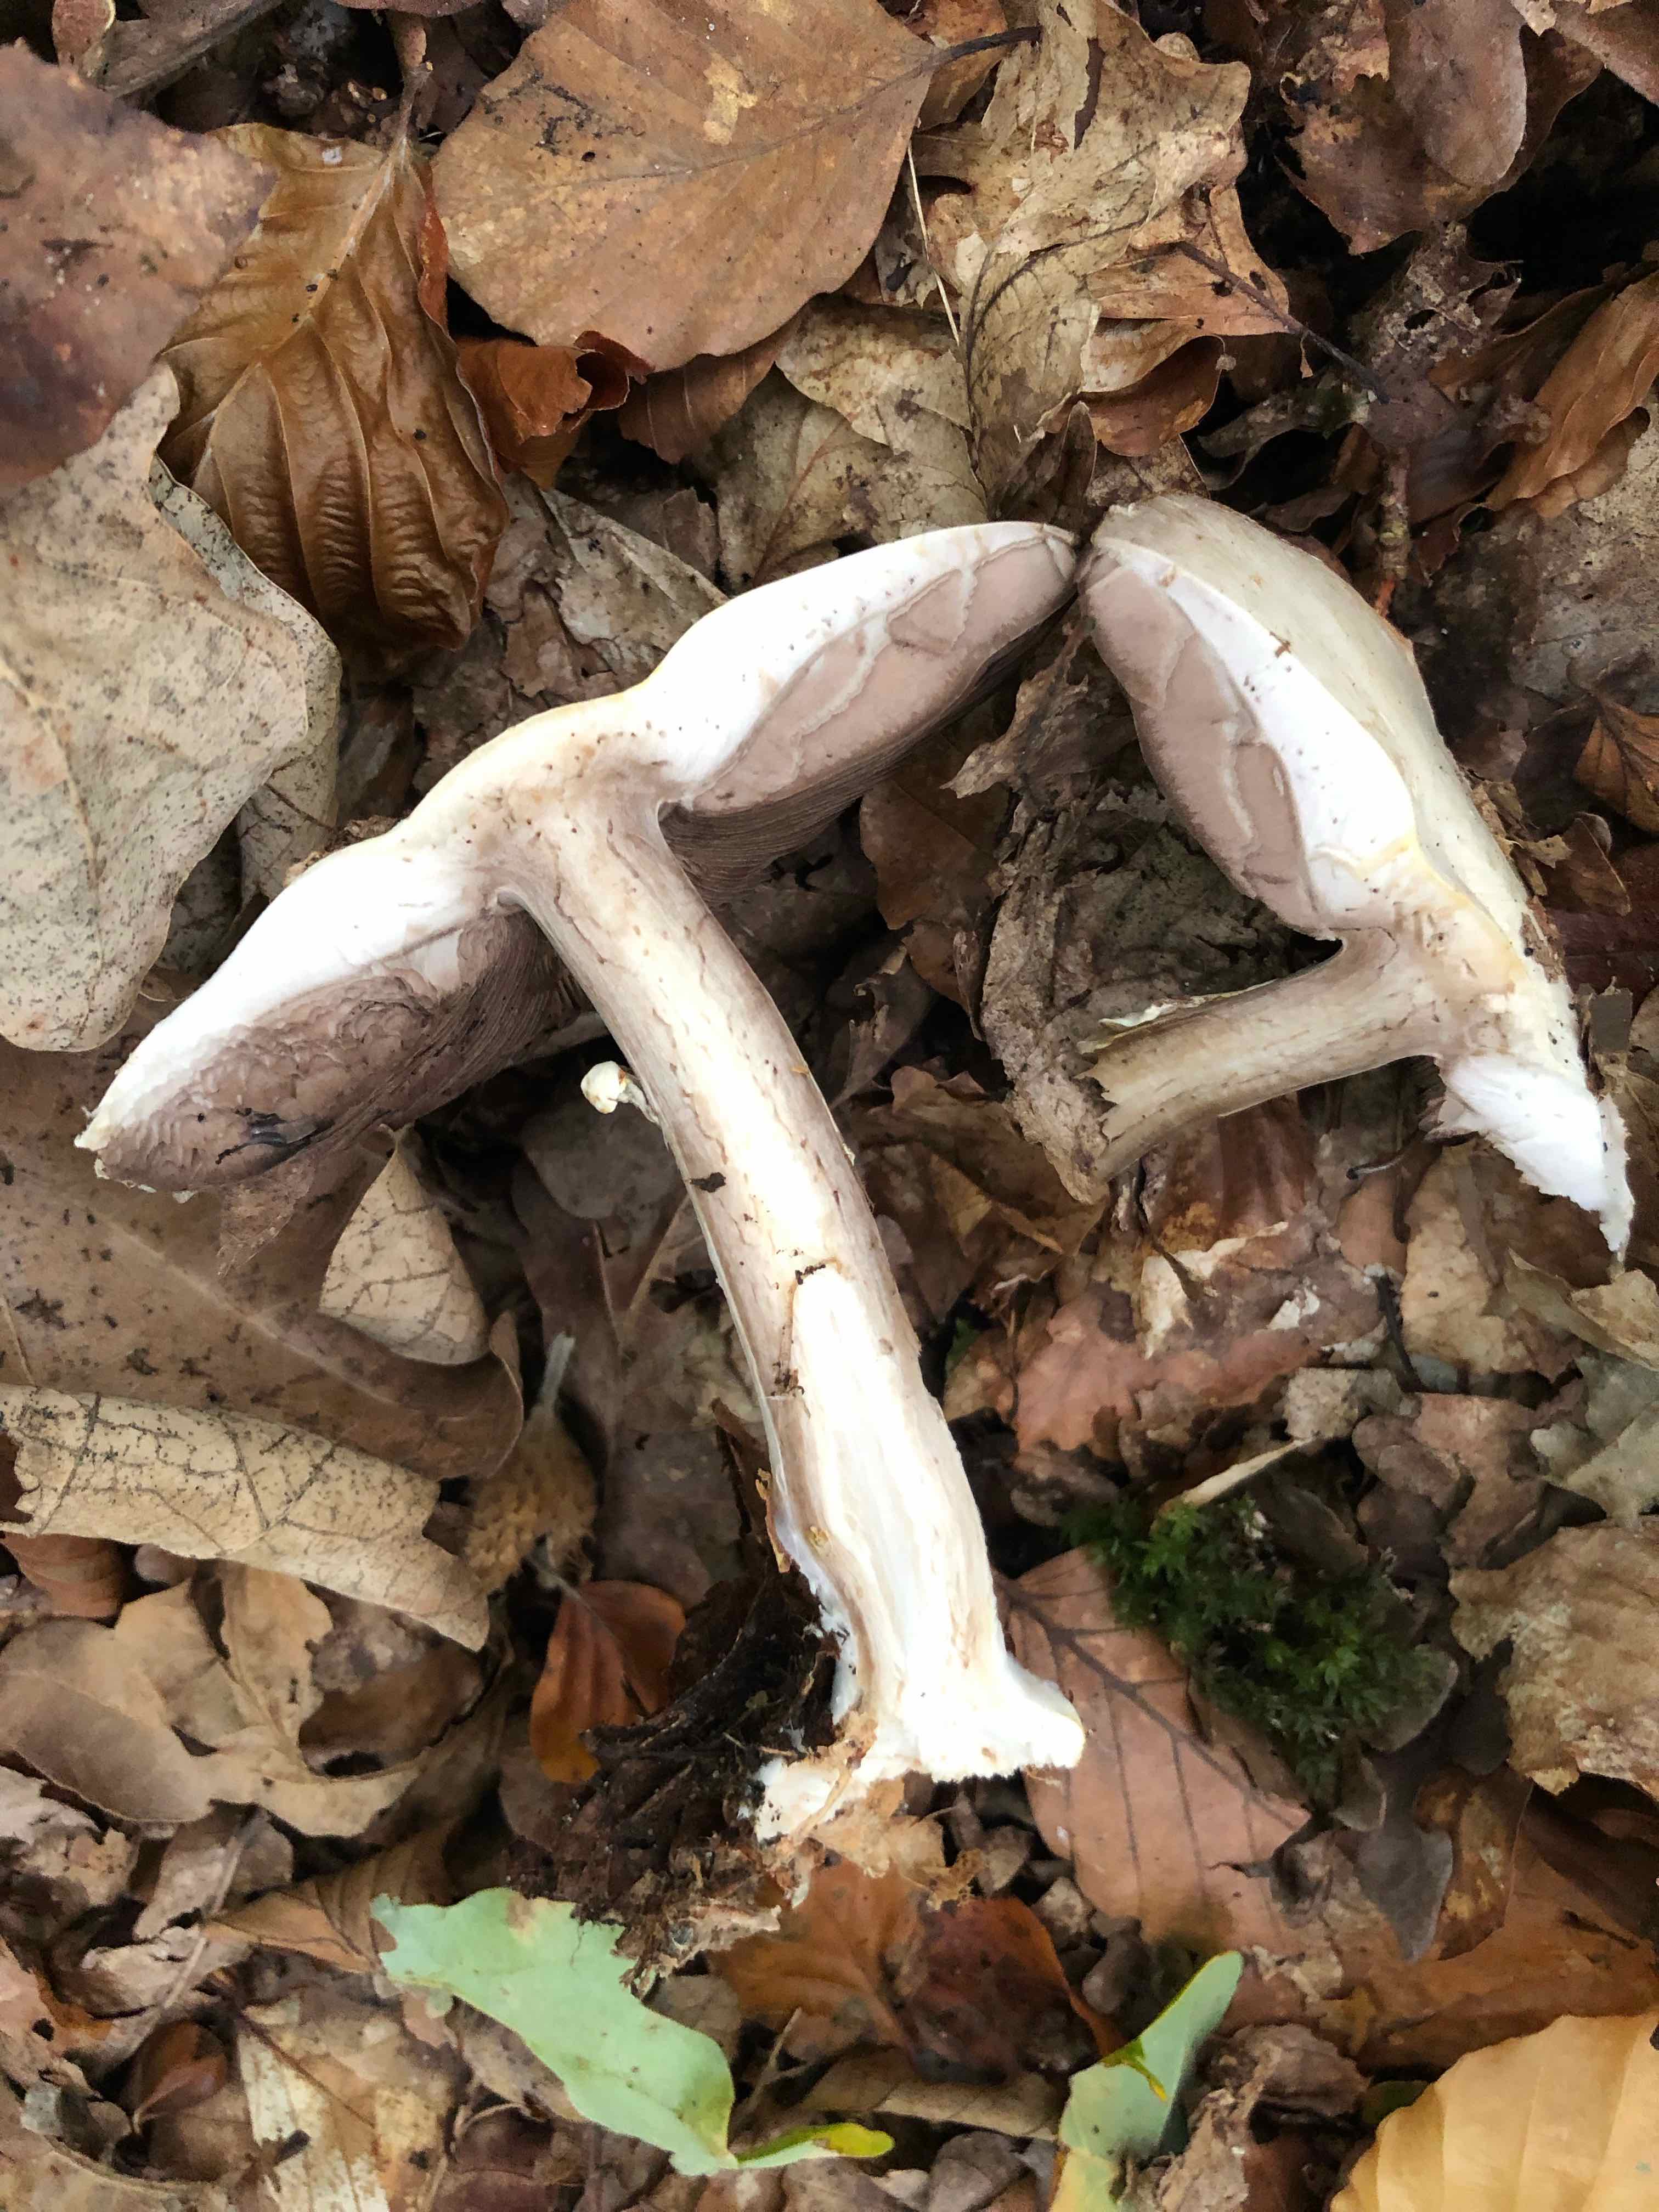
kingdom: Fungi
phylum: Basidiomycota
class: Agaricomycetes
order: Agaricales
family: Agaricaceae
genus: Agaricus
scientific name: Agaricus
